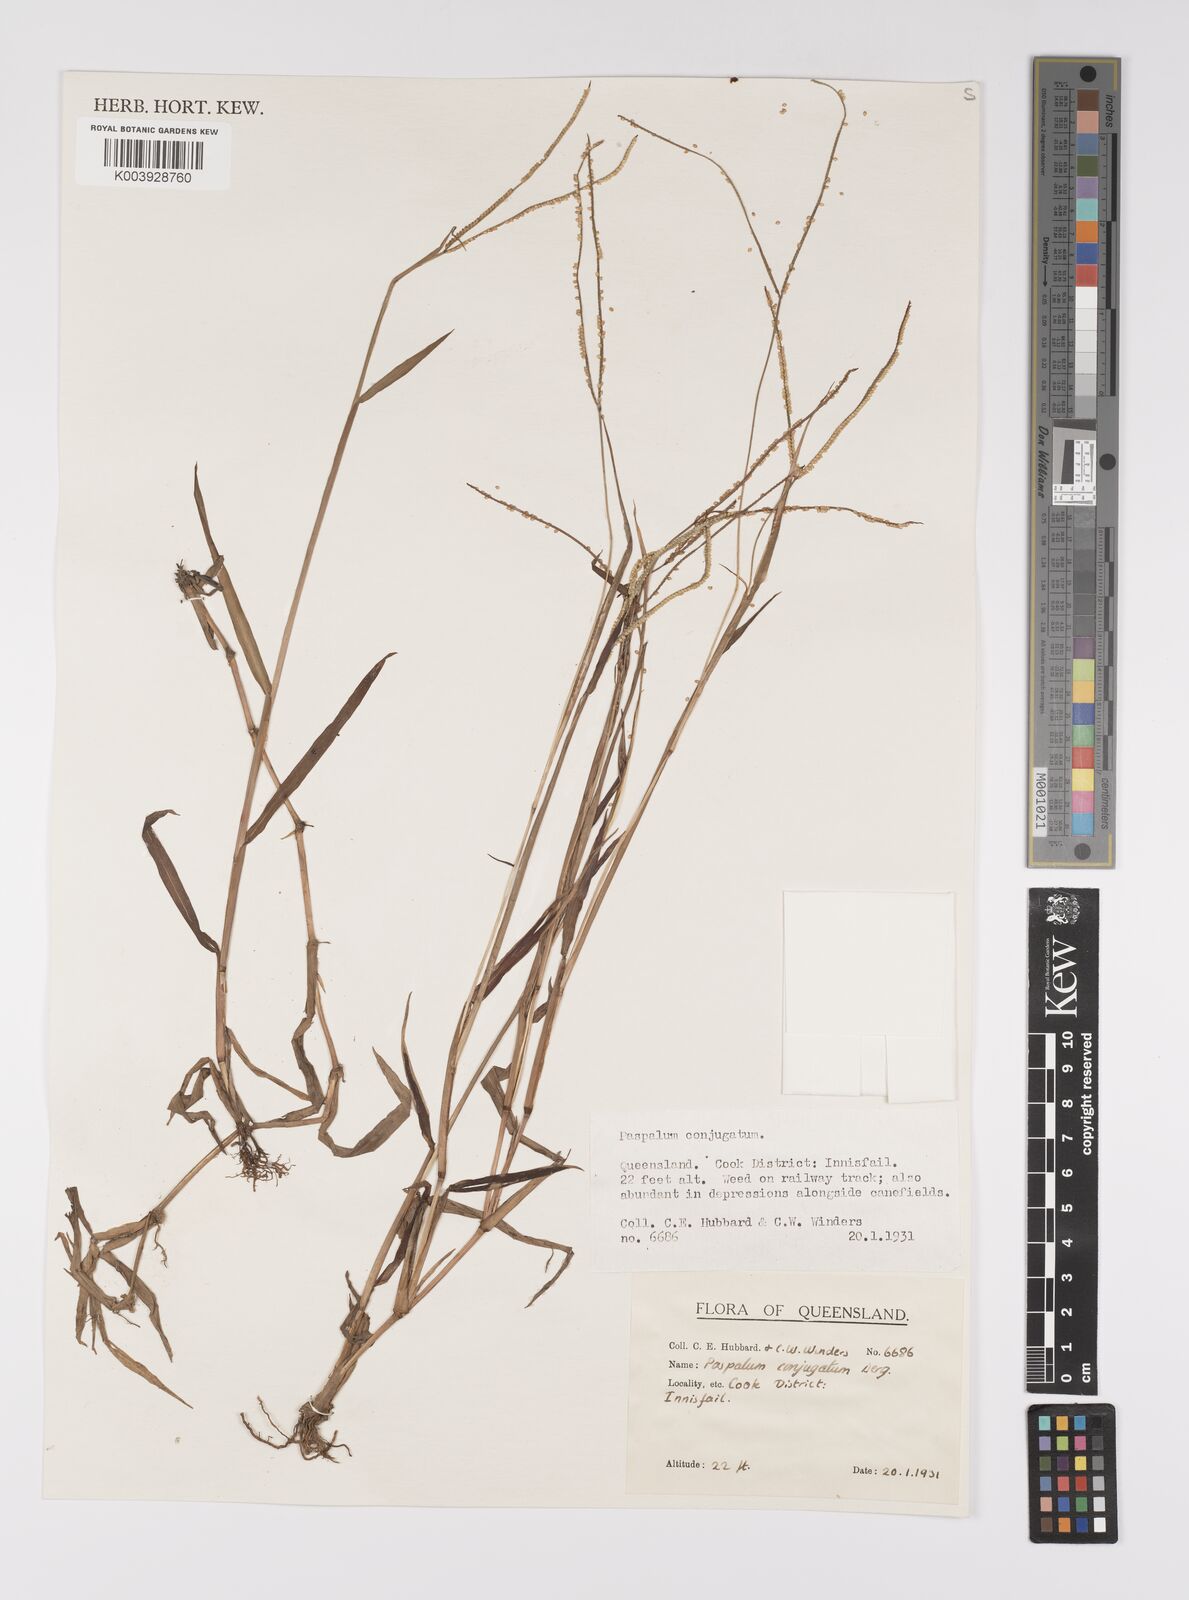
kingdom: Plantae
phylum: Tracheophyta
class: Liliopsida
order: Poales
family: Poaceae
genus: Paspalum
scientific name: Paspalum conjugatum
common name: Hilograss
